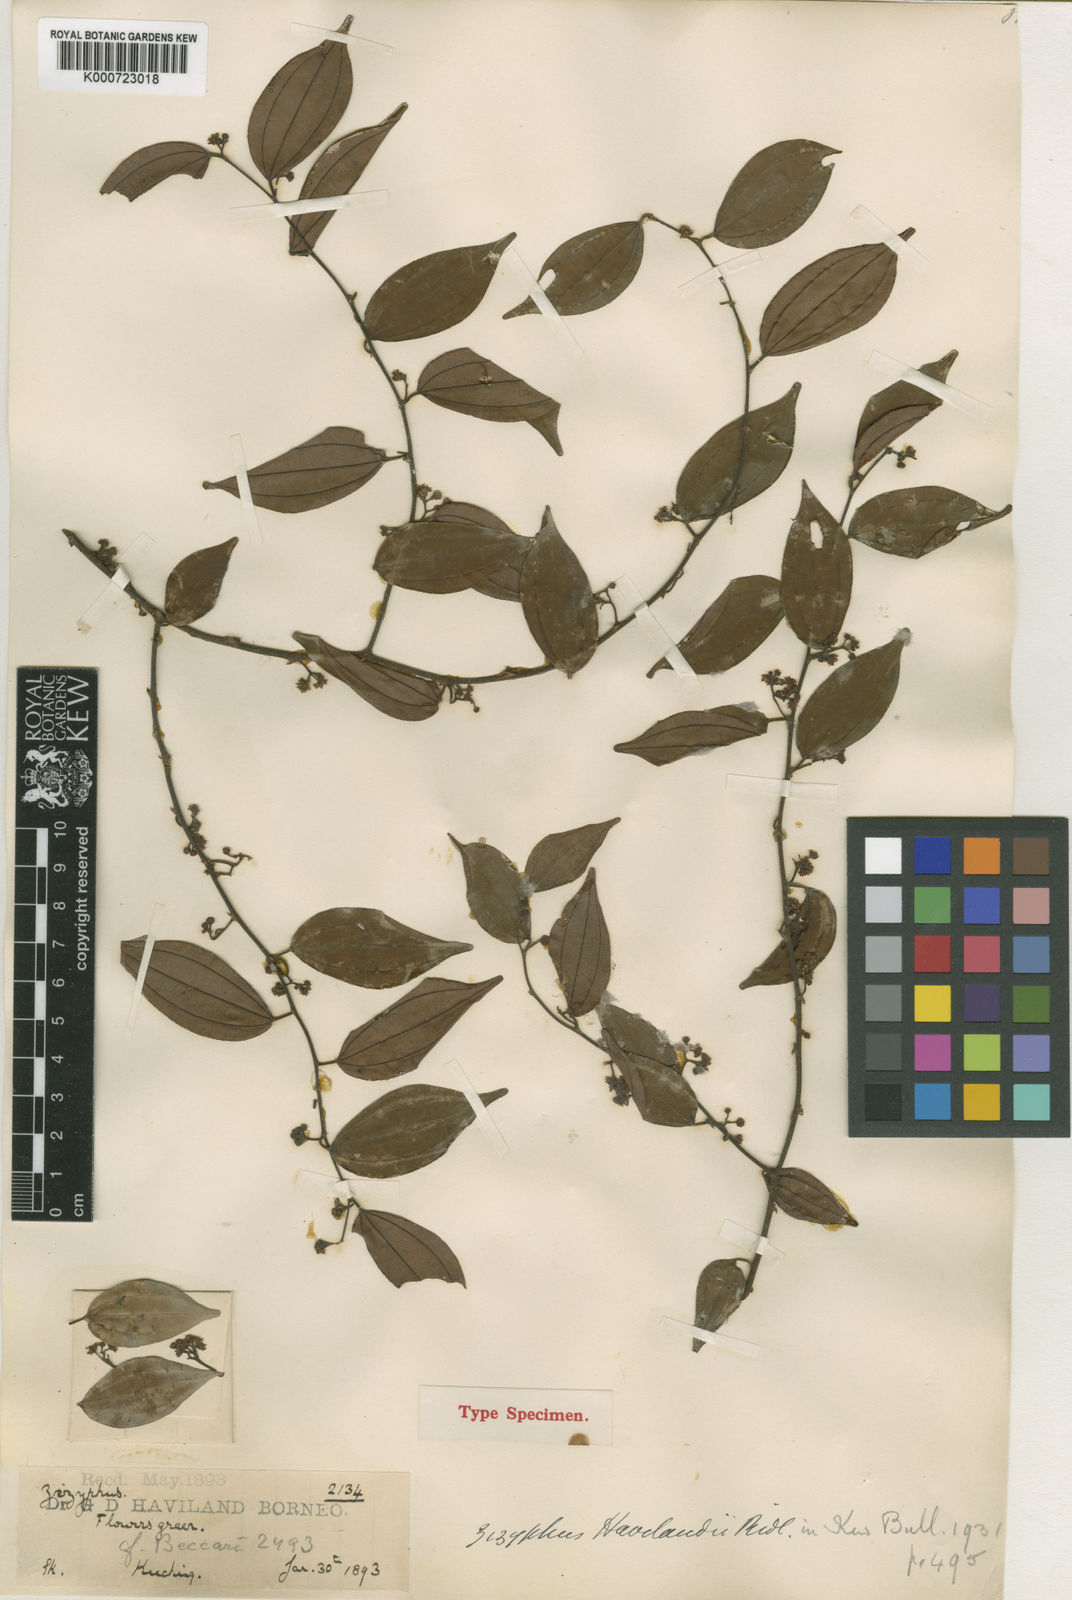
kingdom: Plantae
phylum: Tracheophyta
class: Magnoliopsida
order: Rosales
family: Rhamnaceae
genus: Ziziphus
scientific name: Ziziphus havilandii
